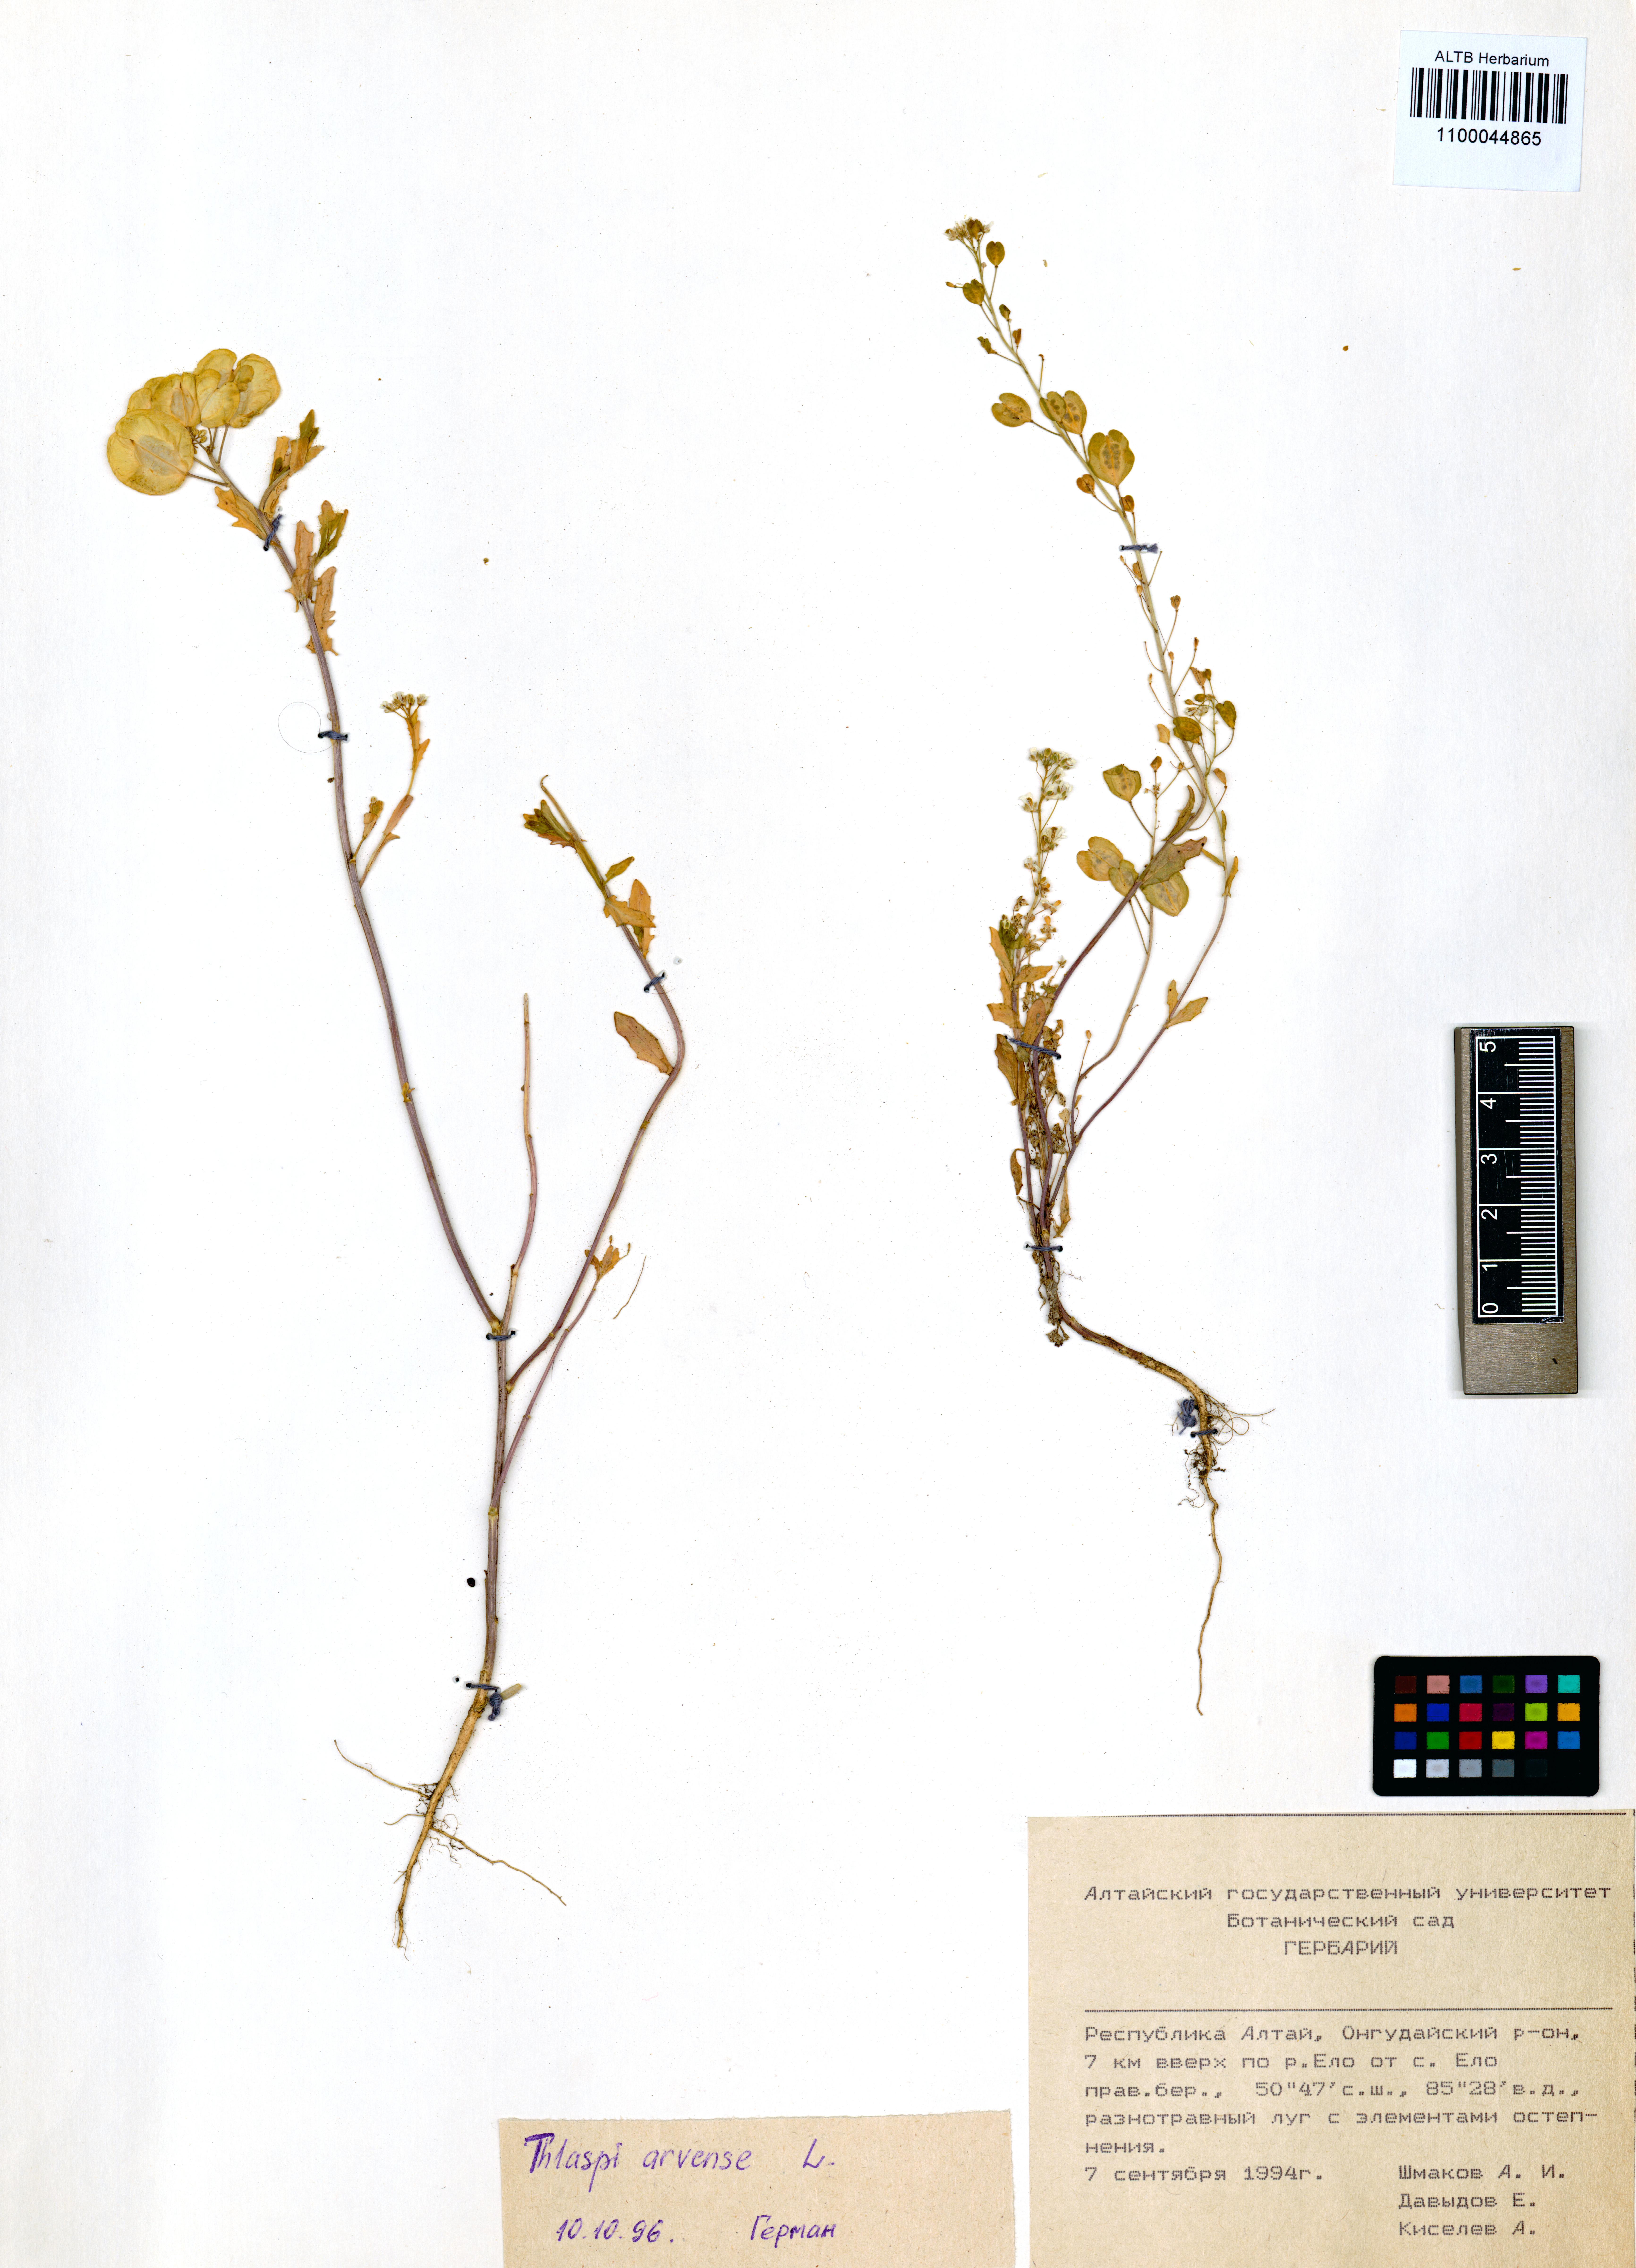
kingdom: Plantae
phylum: Tracheophyta
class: Magnoliopsida
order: Brassicales
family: Brassicaceae
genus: Thlaspi
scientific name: Thlaspi arvense
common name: Field pennycress
